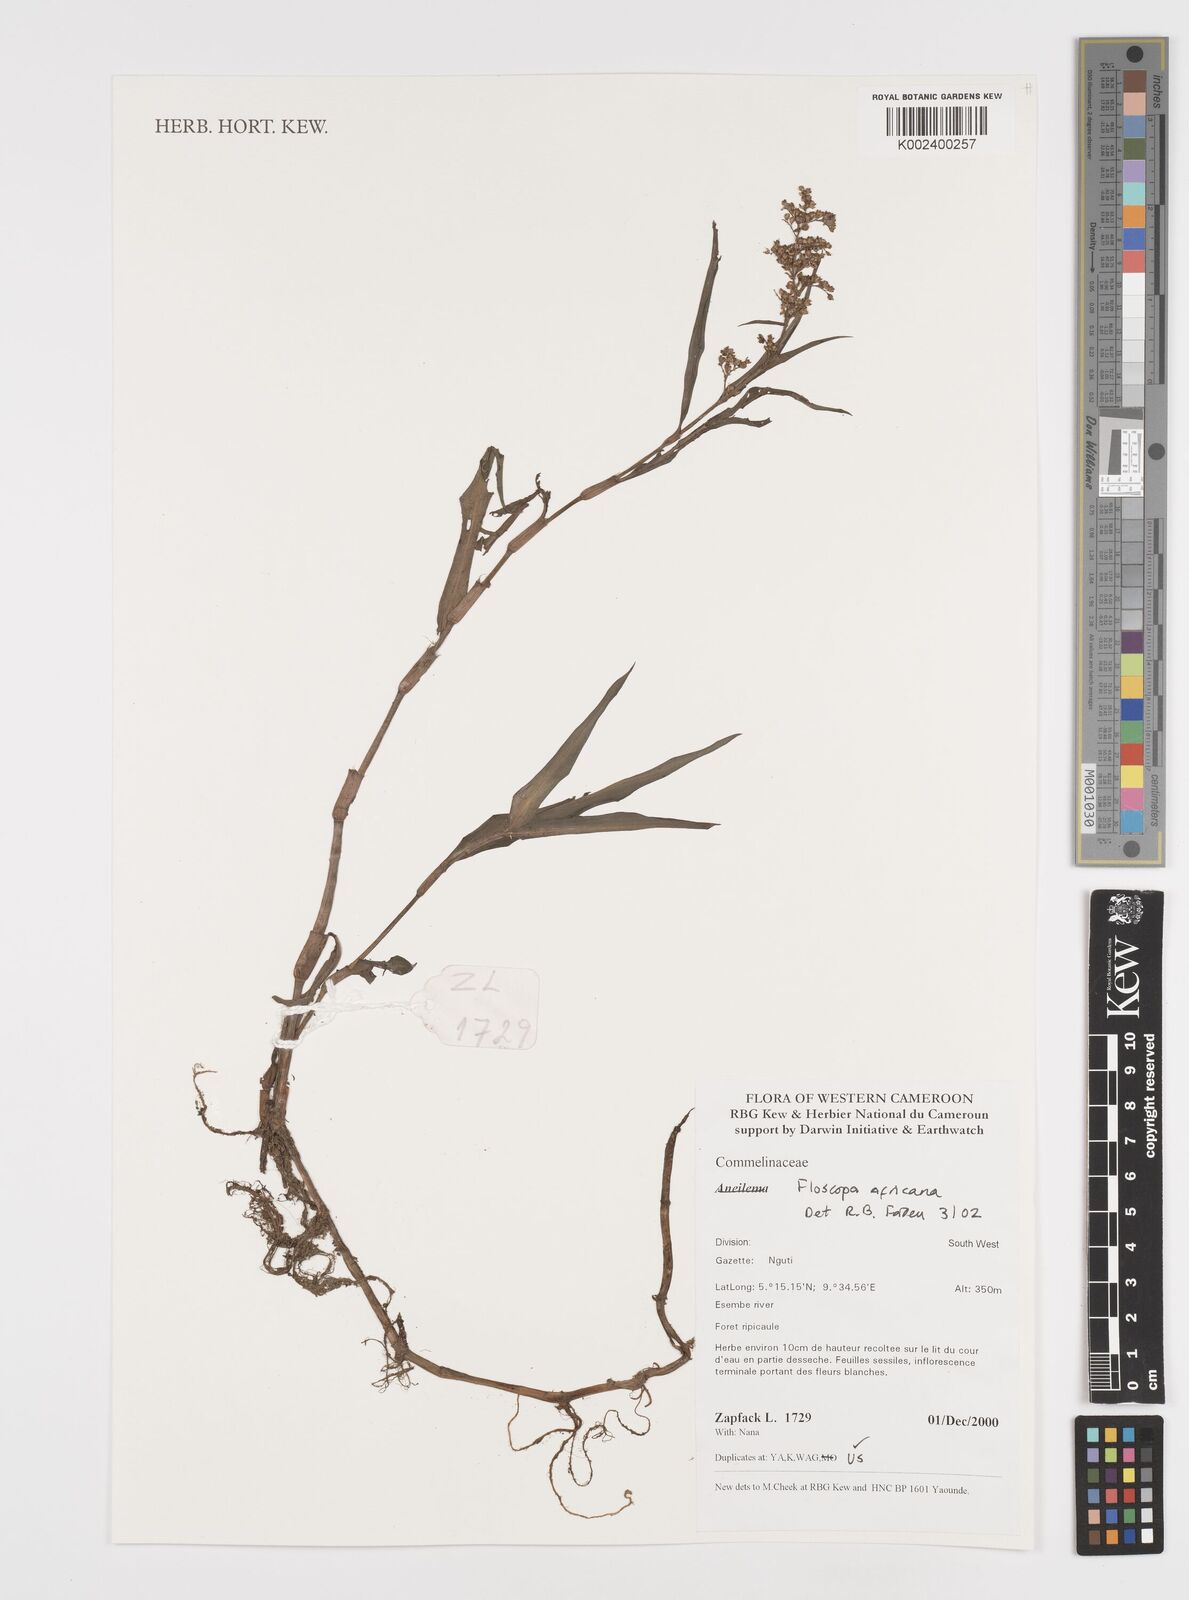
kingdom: Plantae
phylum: Tracheophyta
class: Liliopsida
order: Commelinales
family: Commelinaceae
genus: Floscopa
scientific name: Floscopa africana
